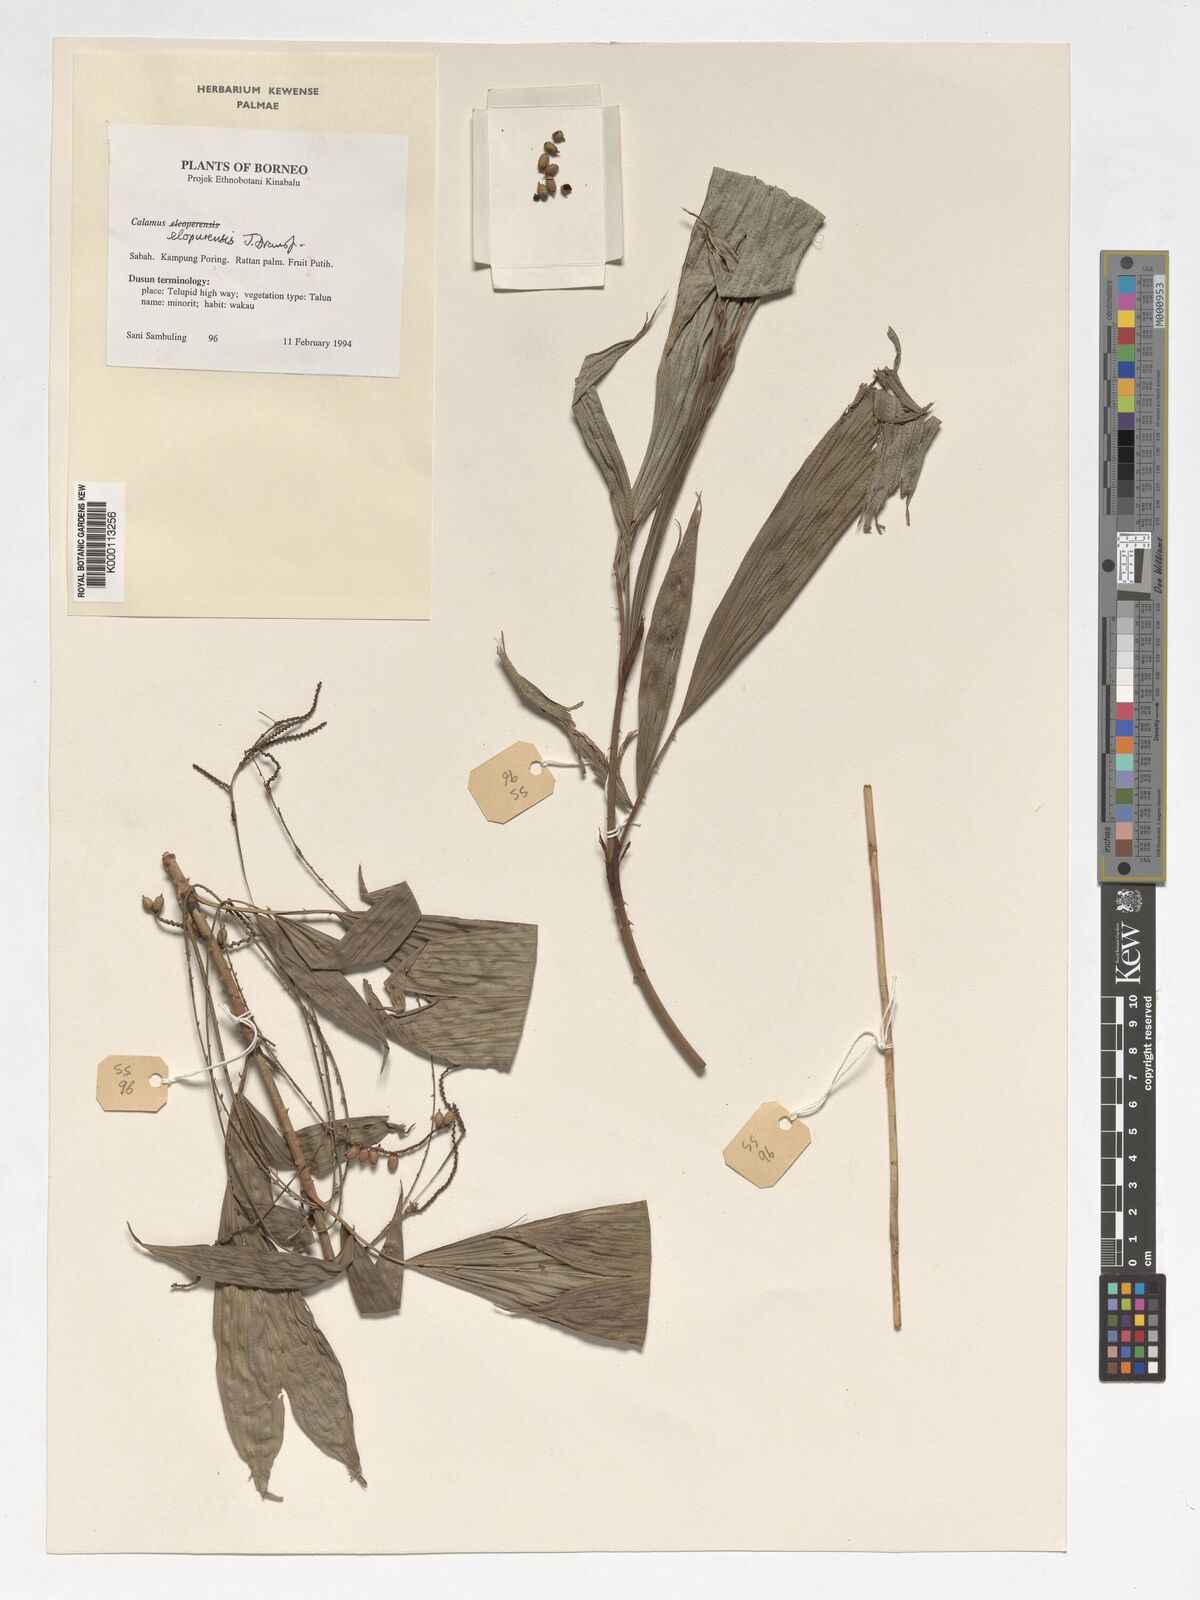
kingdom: Plantae
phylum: Tracheophyta
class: Liliopsida
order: Arecales
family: Arecaceae
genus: Calamus
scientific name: Calamus javensis
